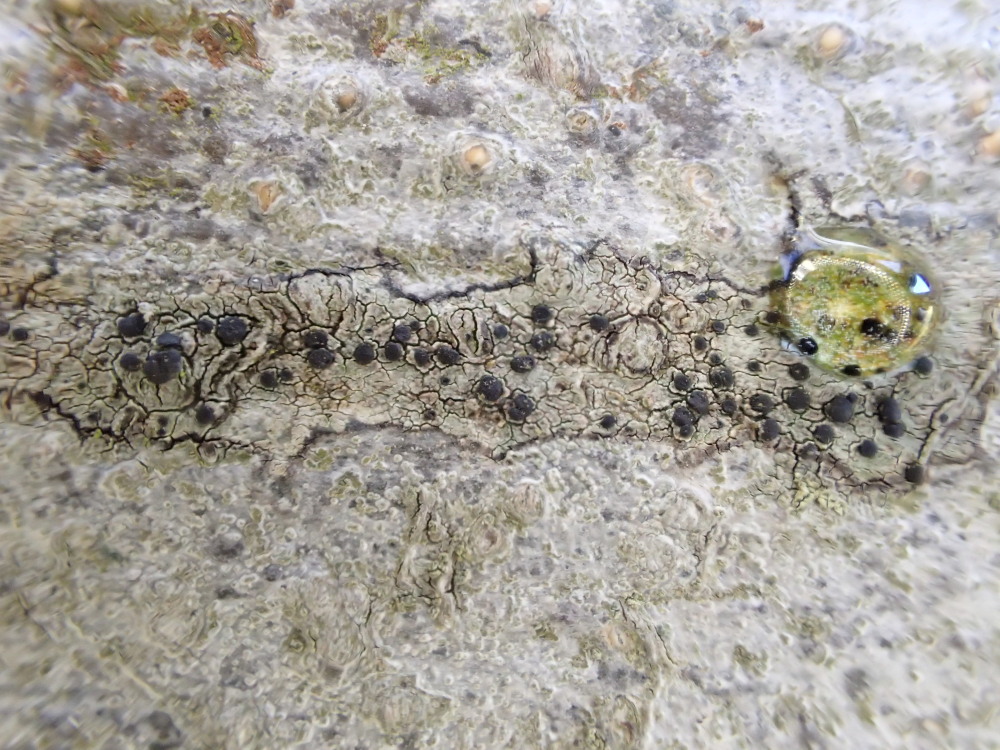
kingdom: Fungi
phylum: Ascomycota
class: Lecanoromycetes
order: Lecanorales
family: Lecanoraceae
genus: Lecidella
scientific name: Lecidella elaeochroma
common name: grågrøn skivelav
